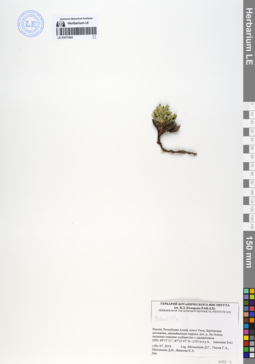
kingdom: Plantae
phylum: Tracheophyta
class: Magnoliopsida
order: Rosales
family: Rosaceae
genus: Potentilla
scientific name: Potentilla
